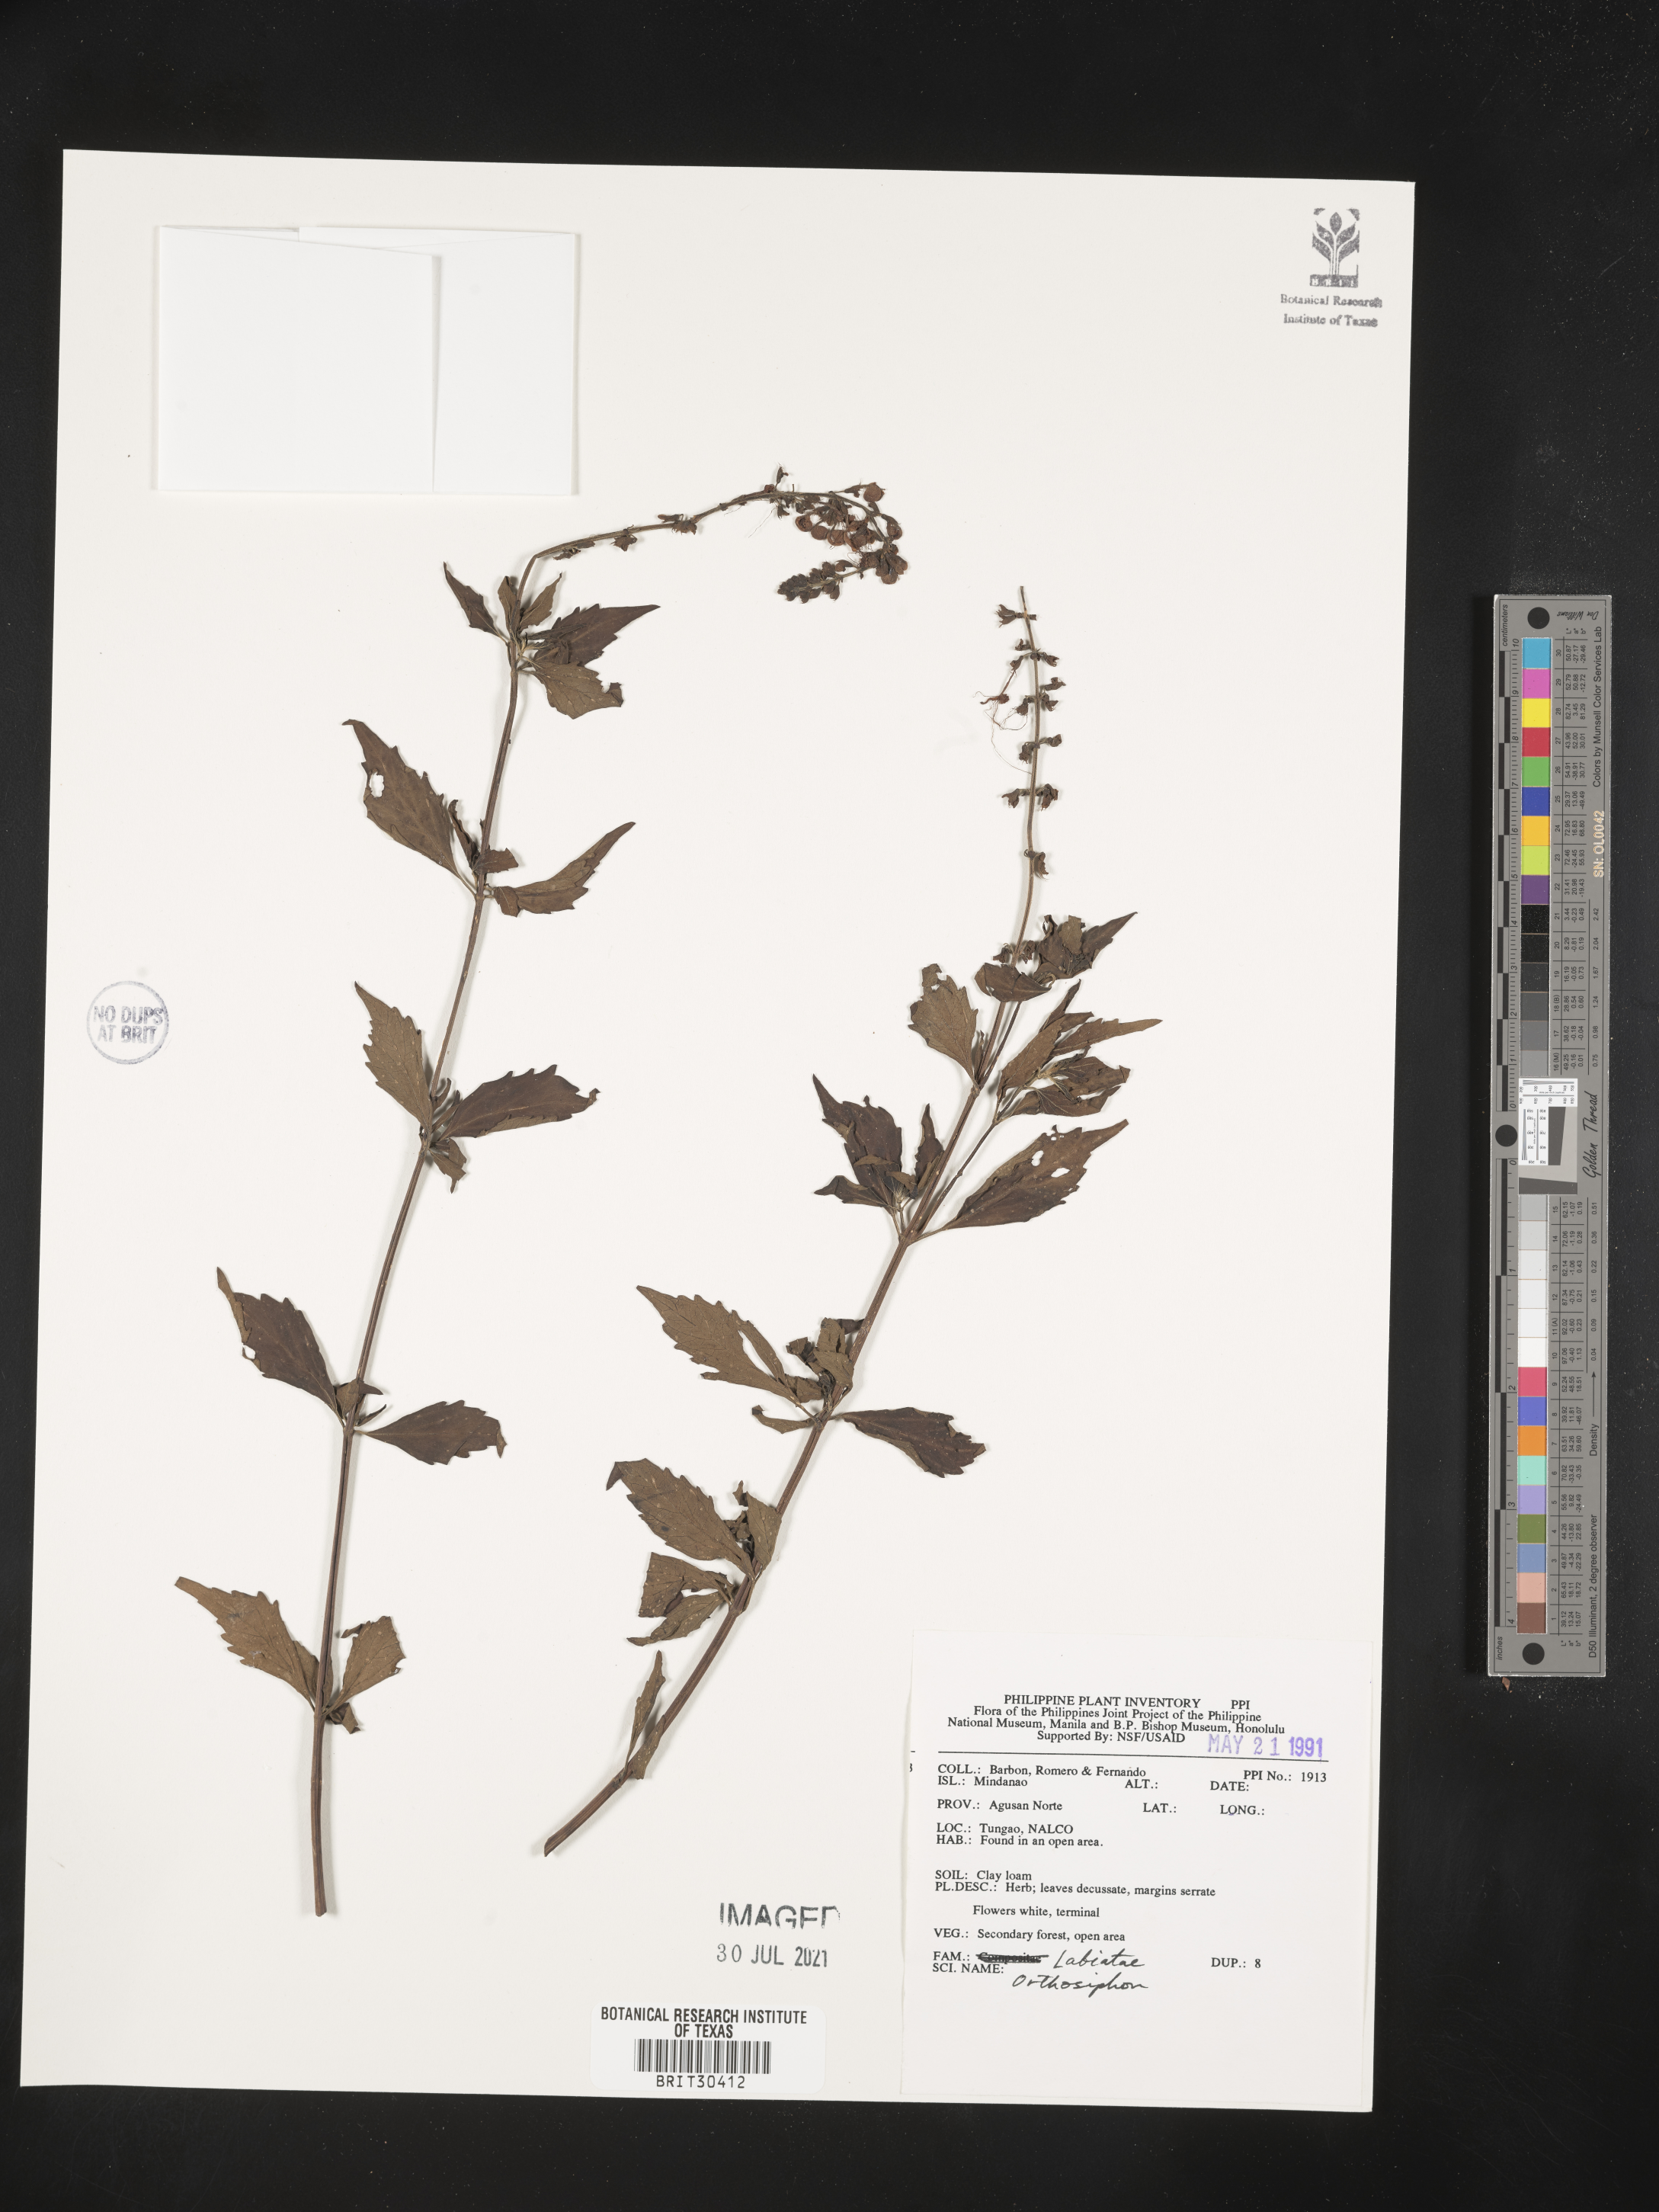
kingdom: Plantae
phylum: Tracheophyta
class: Magnoliopsida
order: Lamiales
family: Lamiaceae
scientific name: Lamiaceae
